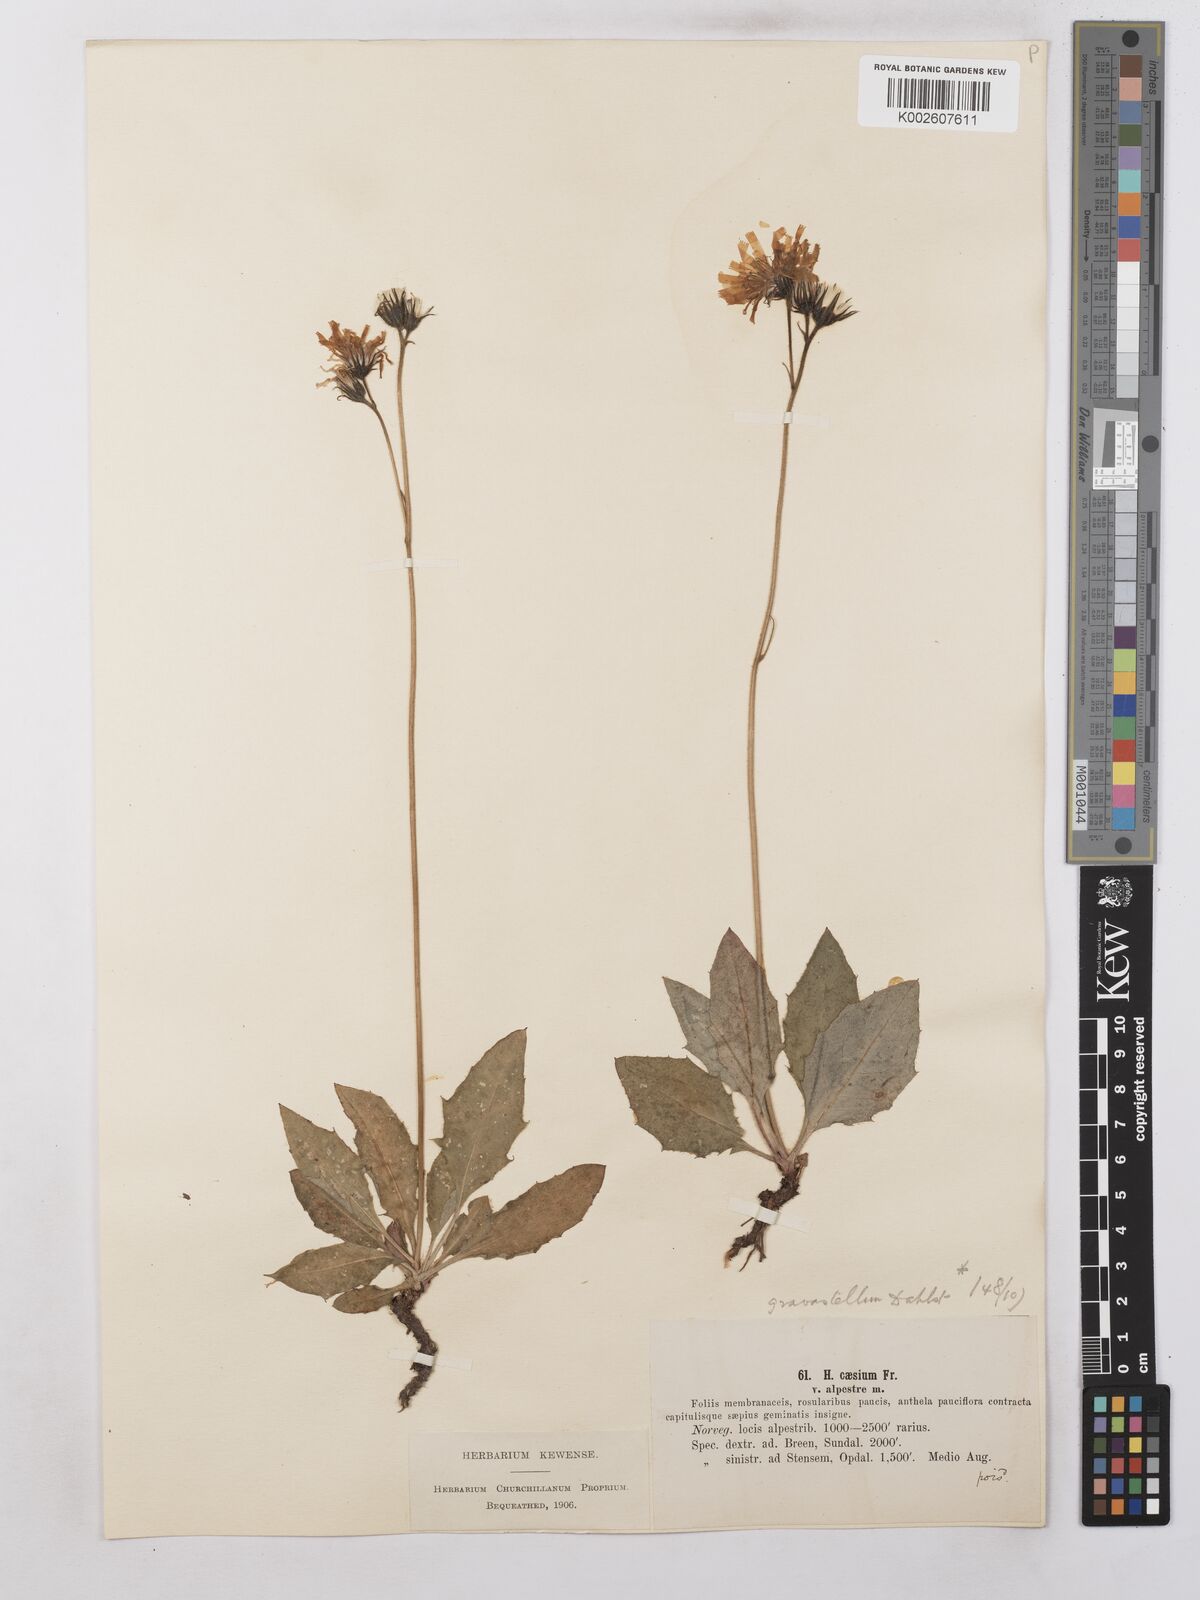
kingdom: Plantae
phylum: Tracheophyta
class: Magnoliopsida
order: Asterales
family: Asteraceae
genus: Hieracium
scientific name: Hieracium subramosum
